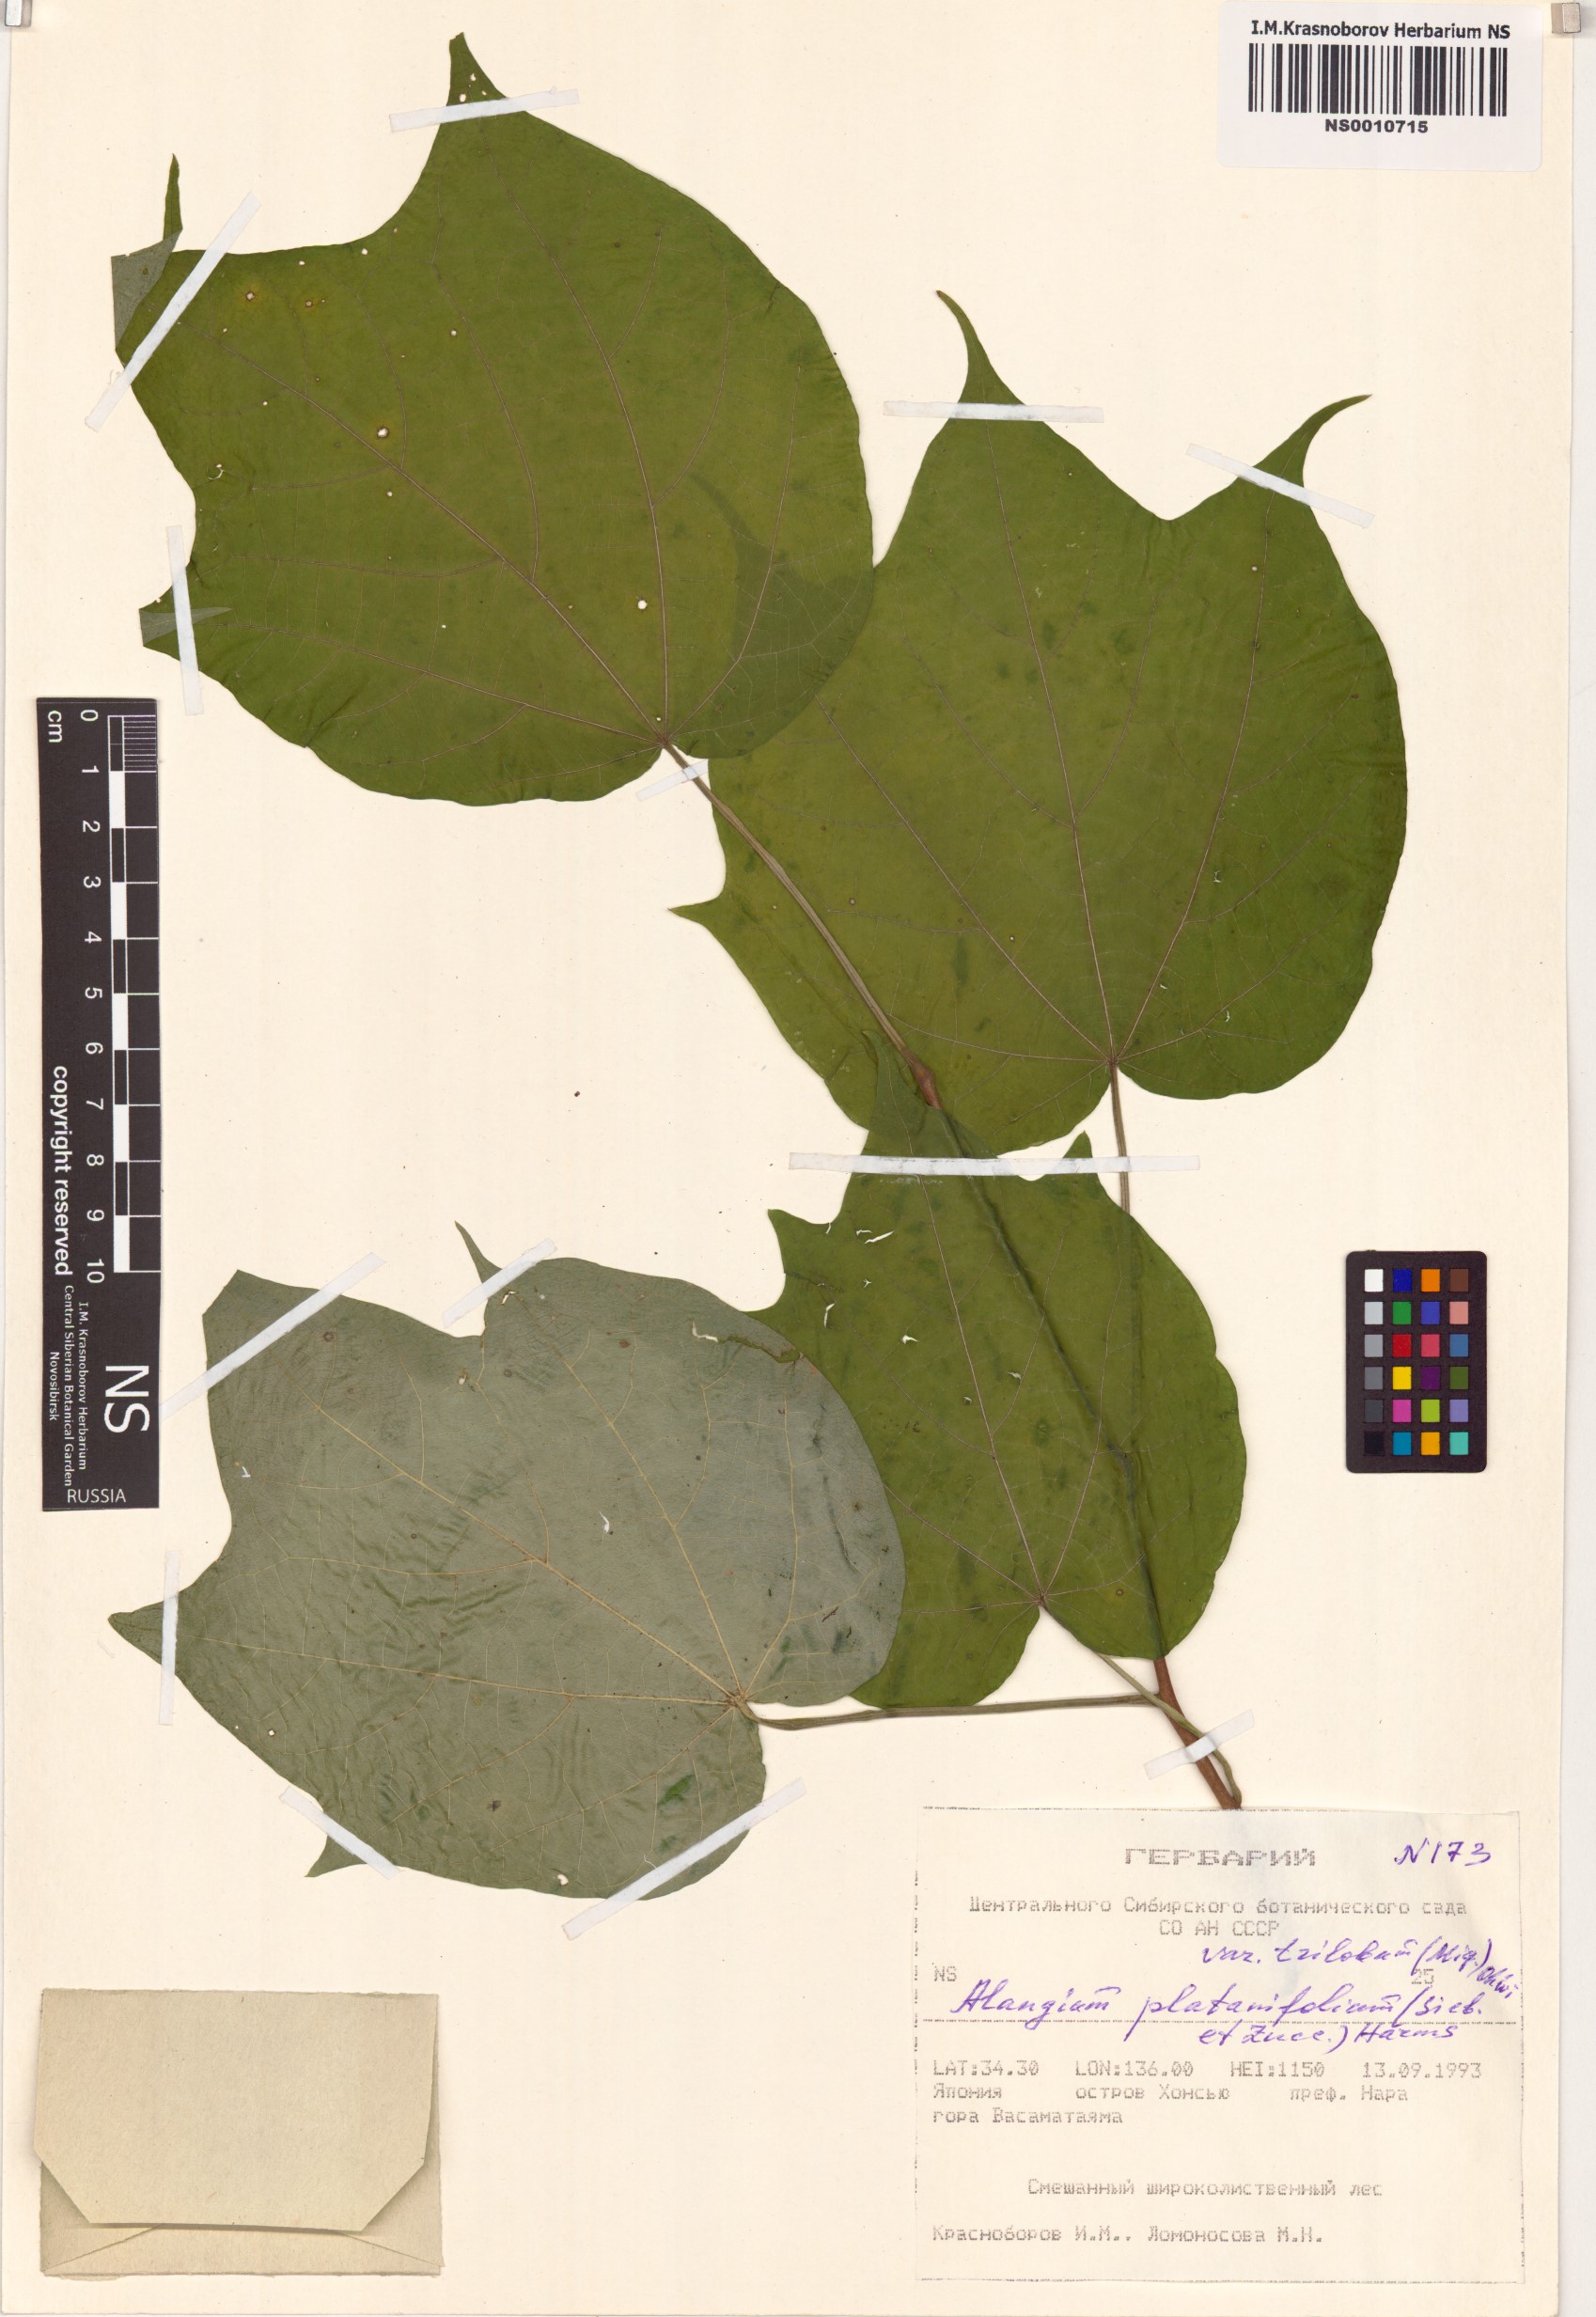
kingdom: Plantae
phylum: Tracheophyta
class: Magnoliopsida
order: Cornales
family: Cornaceae
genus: Alangium
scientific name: Alangium platanifolium
